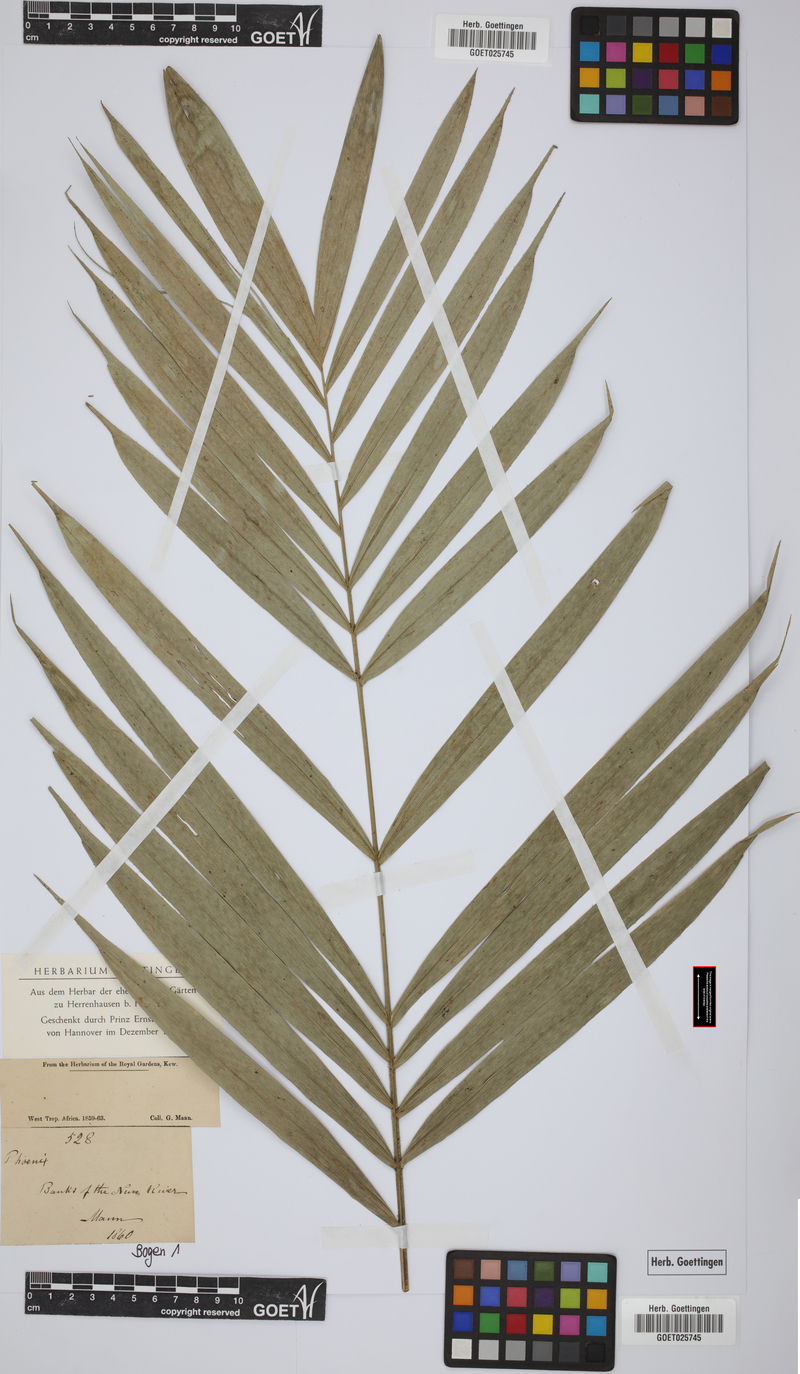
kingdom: Plantae
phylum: Tracheophyta
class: Liliopsida
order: Arecales
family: Arecaceae
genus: Phoenix
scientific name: Phoenix reclinata
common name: Senegal date palm
